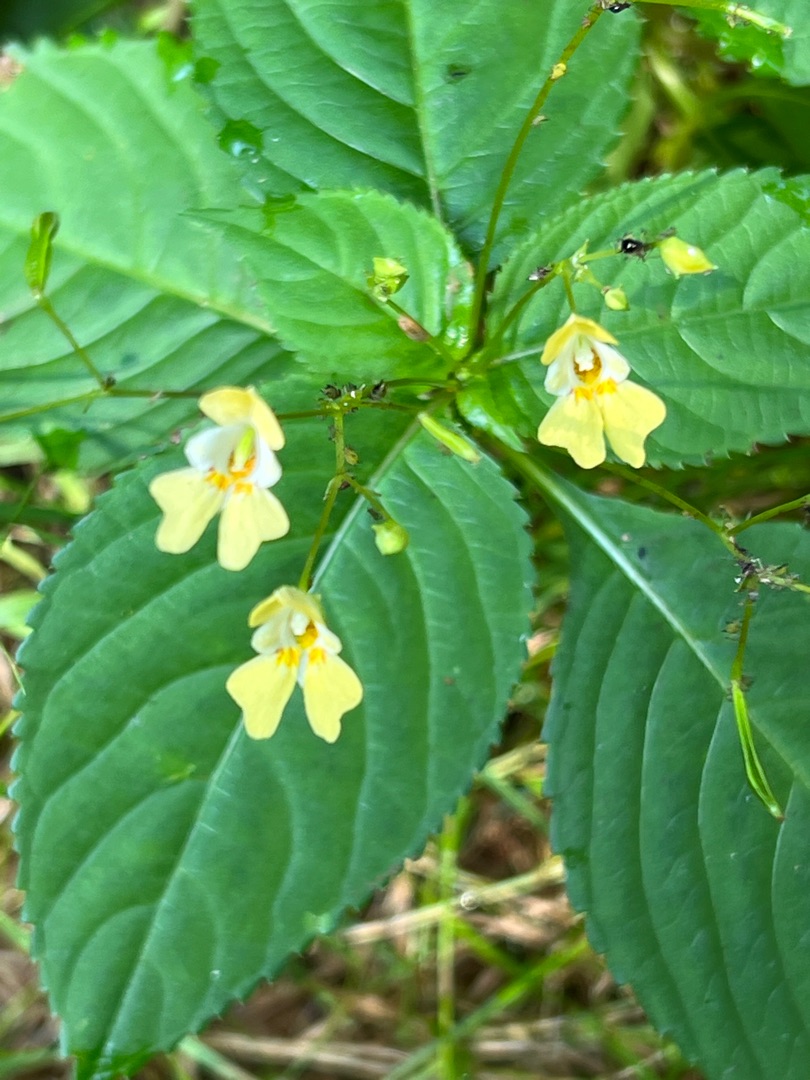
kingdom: Plantae
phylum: Tracheophyta
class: Magnoliopsida
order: Ericales
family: Balsaminaceae
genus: Impatiens
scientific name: Impatiens parviflora
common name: Småblomstret balsamin
